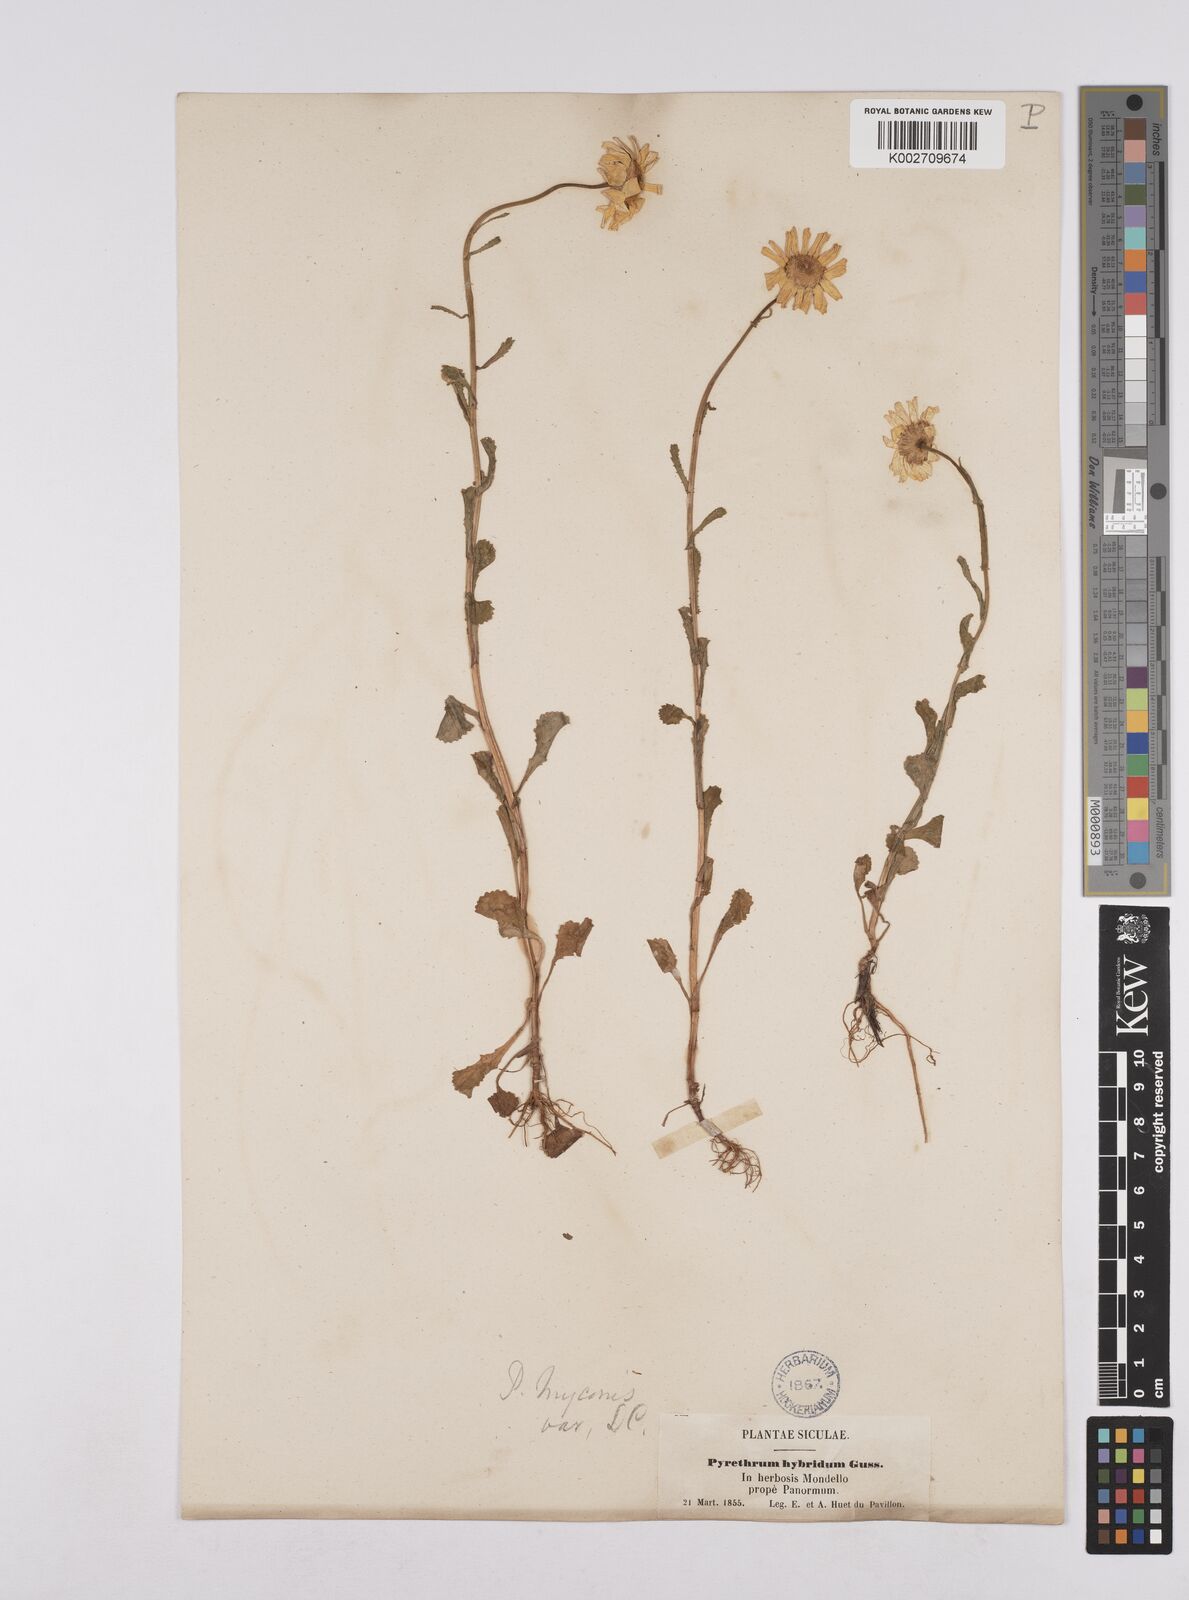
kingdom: Plantae
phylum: Tracheophyta
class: Magnoliopsida
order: Asterales
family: Asteraceae
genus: Coleostephus
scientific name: Coleostephus paludosus
